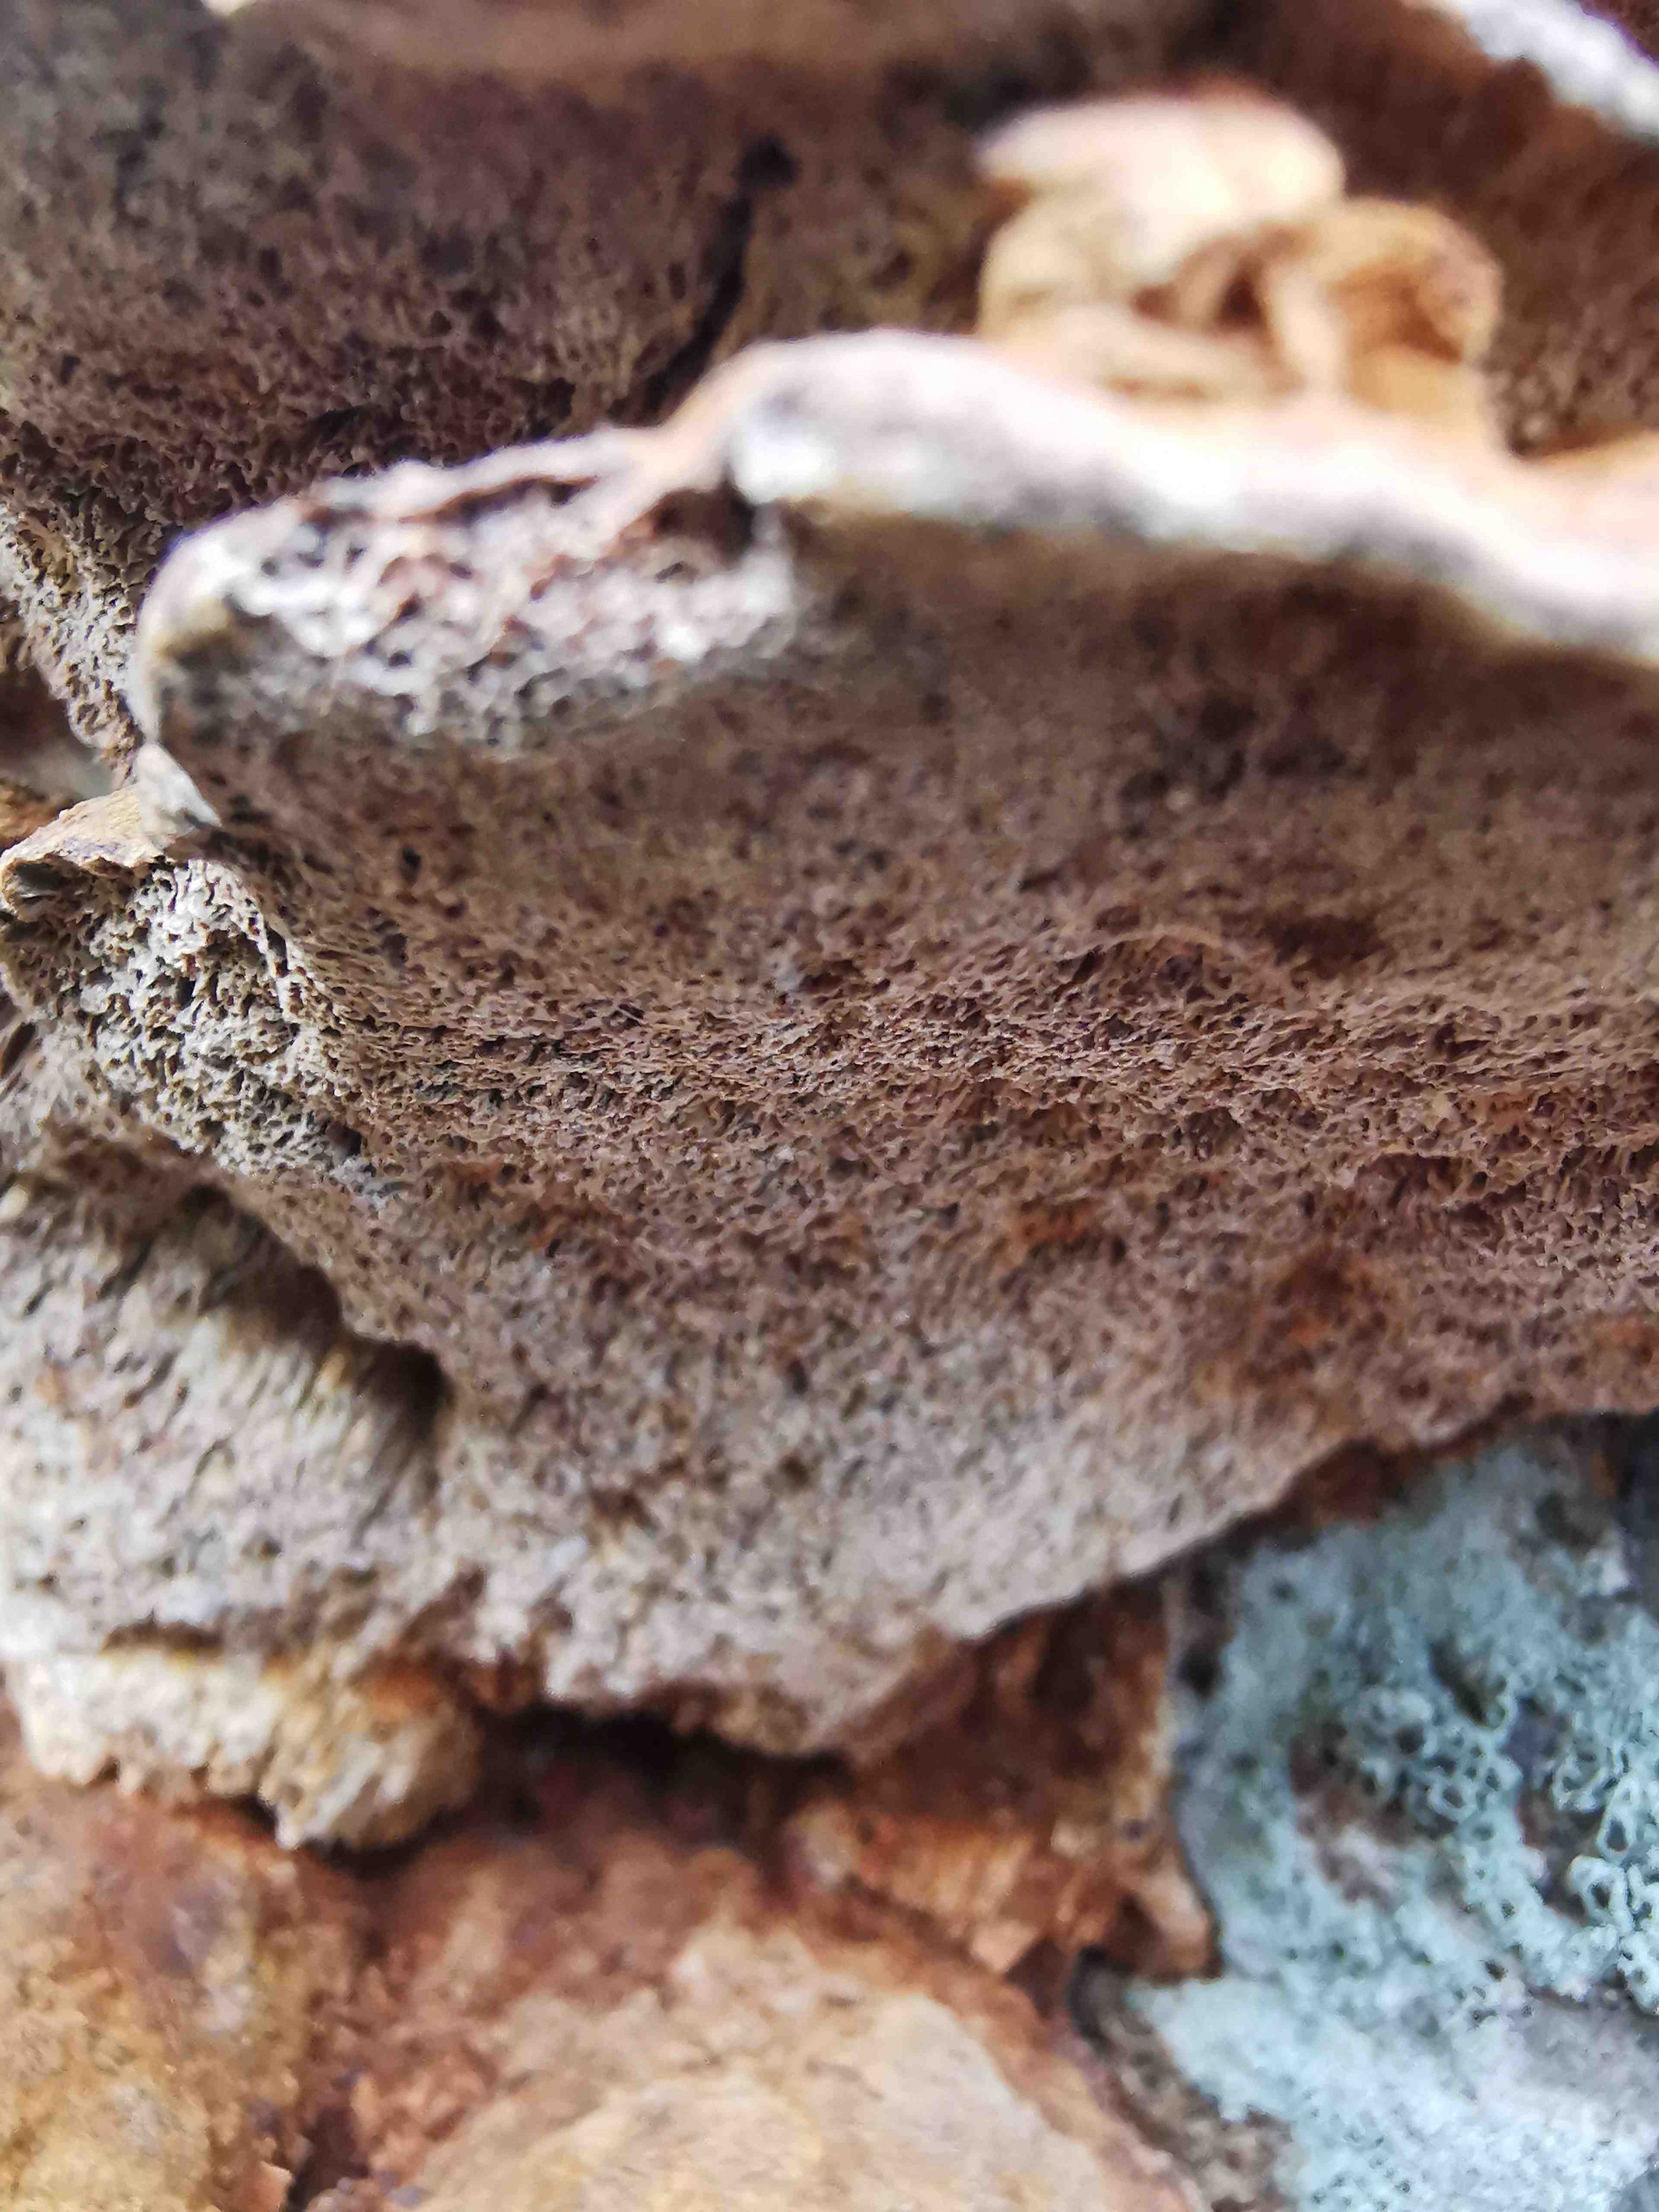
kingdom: Fungi
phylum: Basidiomycota
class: Agaricomycetes
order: Hymenochaetales
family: Hymenochaetaceae
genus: Xanthoporia
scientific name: Xanthoporia radiata
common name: elle-spejlporesvamp
